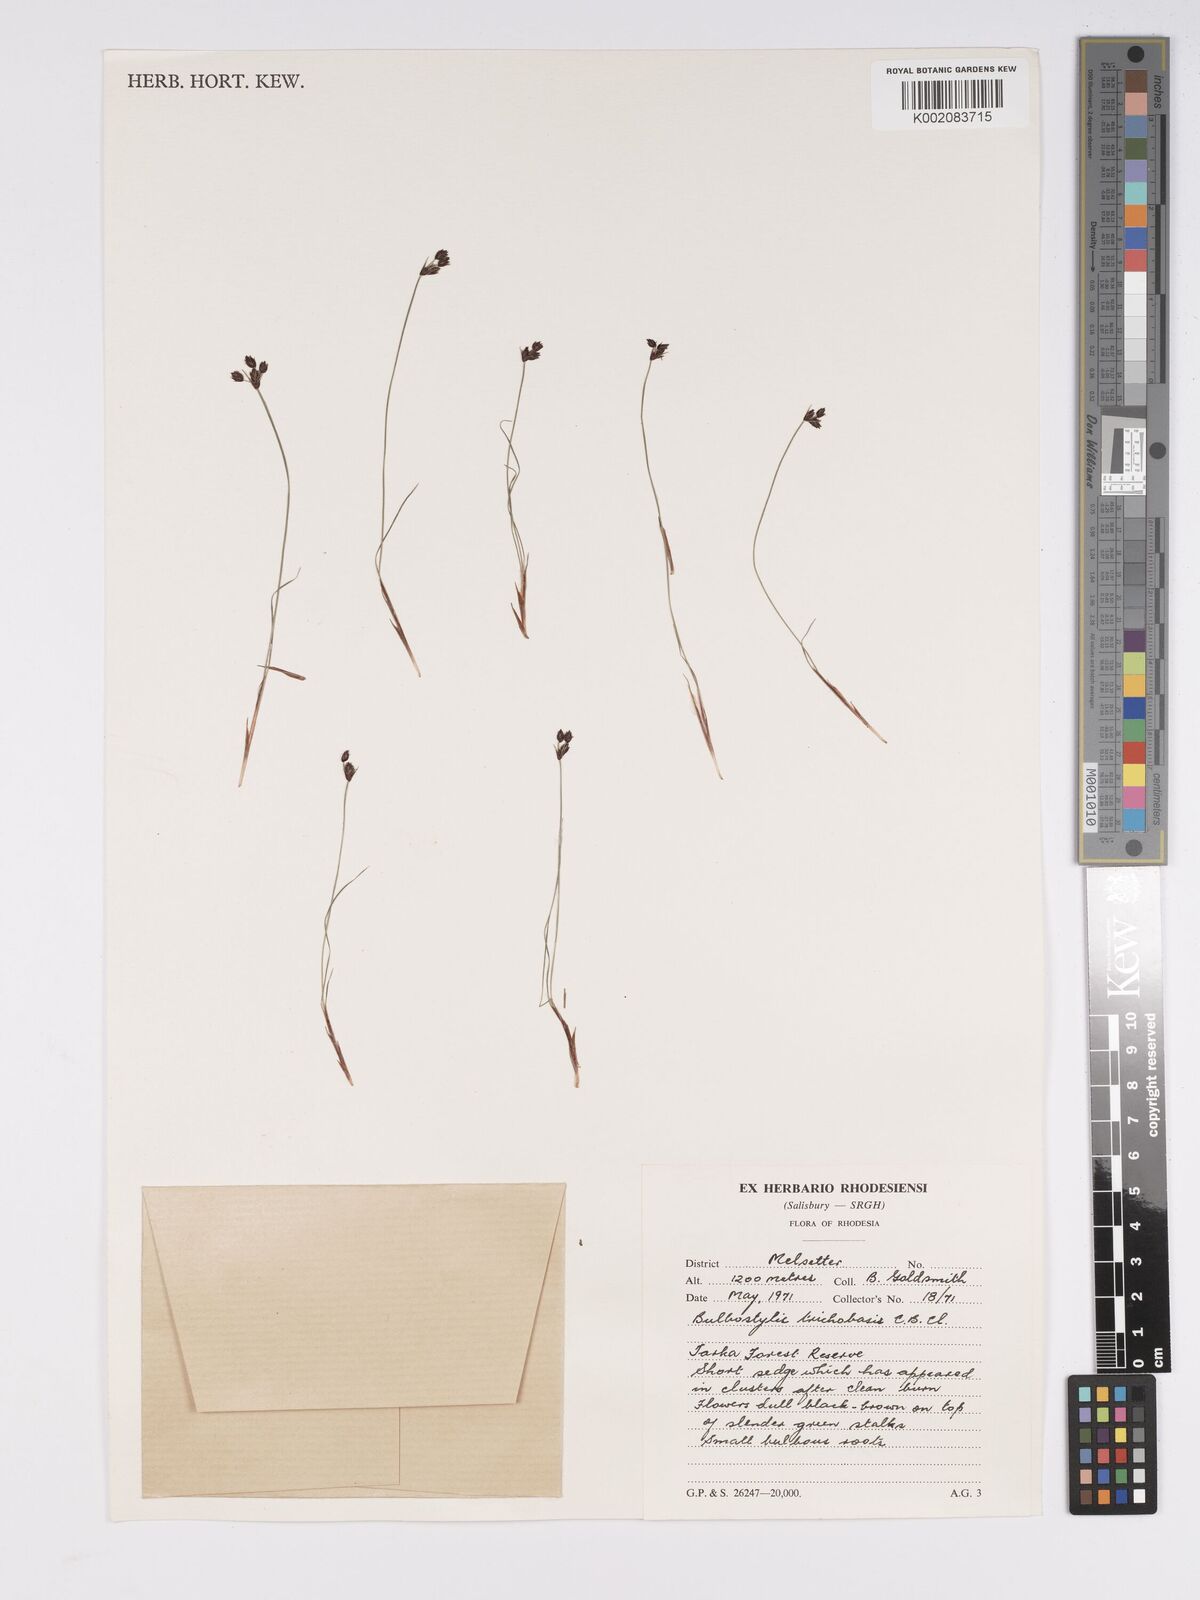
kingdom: Plantae
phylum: Tracheophyta
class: Liliopsida
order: Poales
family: Cyperaceae
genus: Bulbostylis
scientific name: Bulbostylis trichobasis
